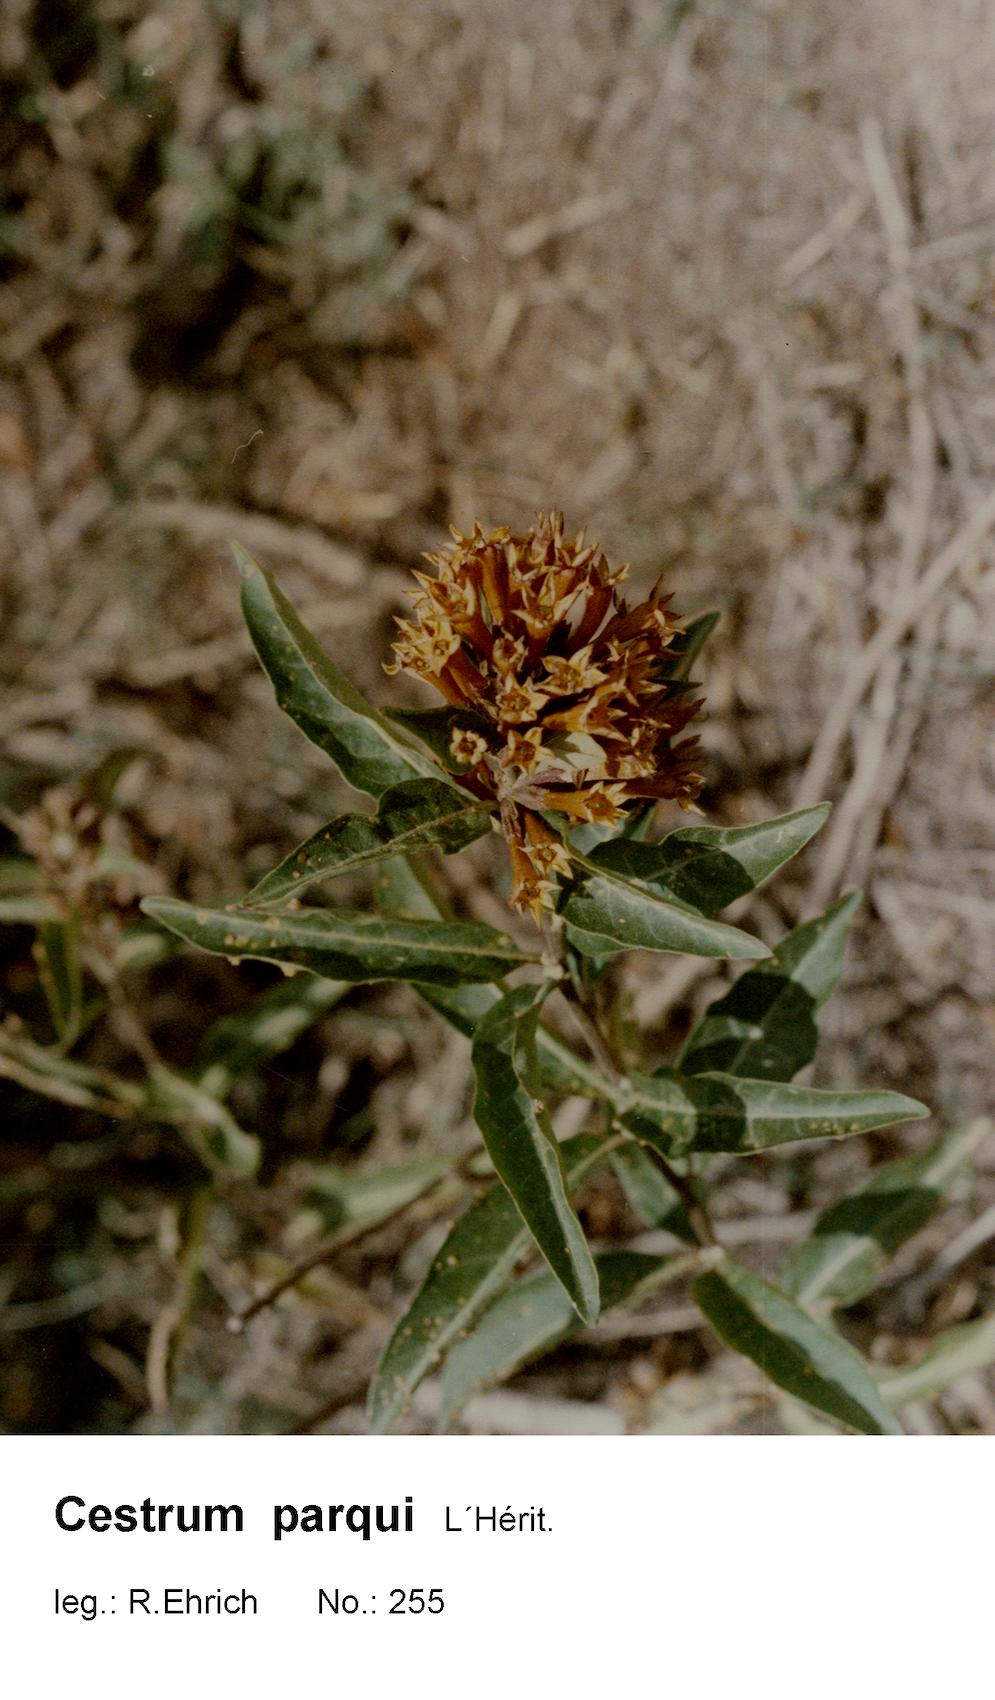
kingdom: Plantae
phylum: Tracheophyta
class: Magnoliopsida
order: Solanales
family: Solanaceae
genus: Cestrum
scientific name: Cestrum thyrsoideum
